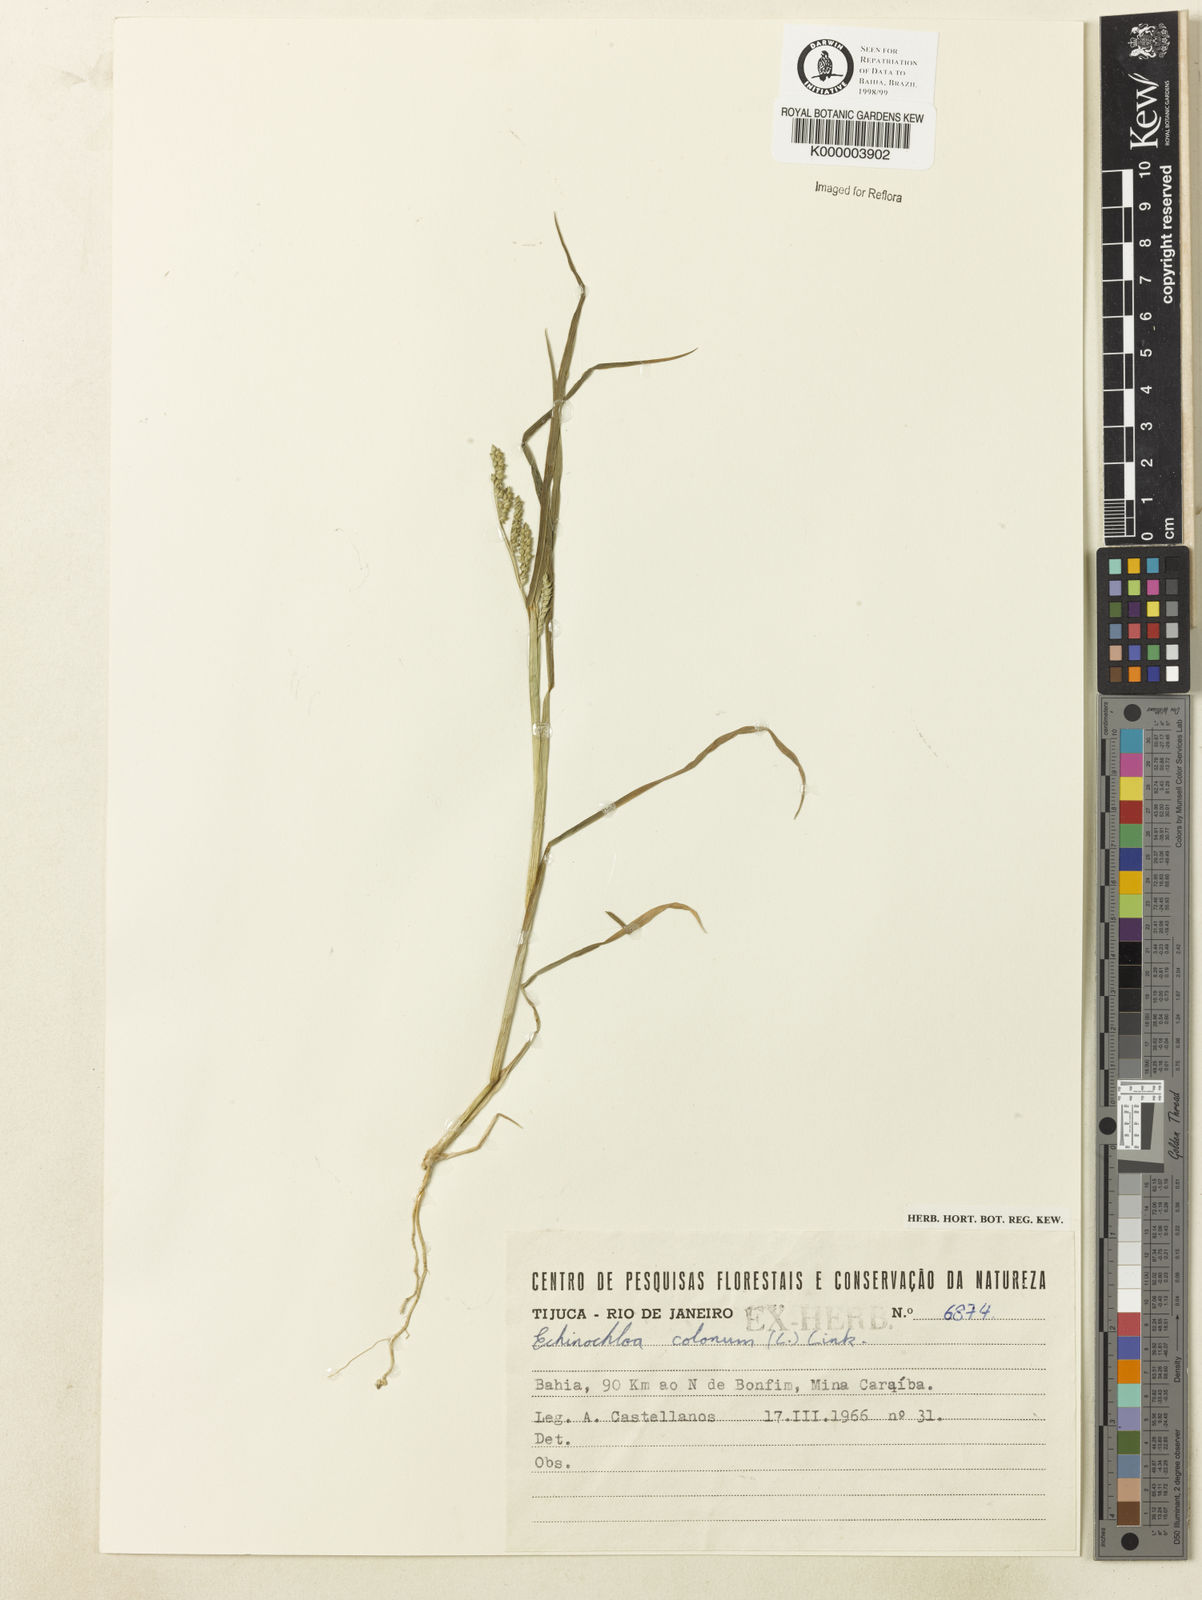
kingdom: Plantae
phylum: Tracheophyta
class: Liliopsida
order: Poales
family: Poaceae
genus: Echinochloa
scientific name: Echinochloa colonum
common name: Jungle rice
